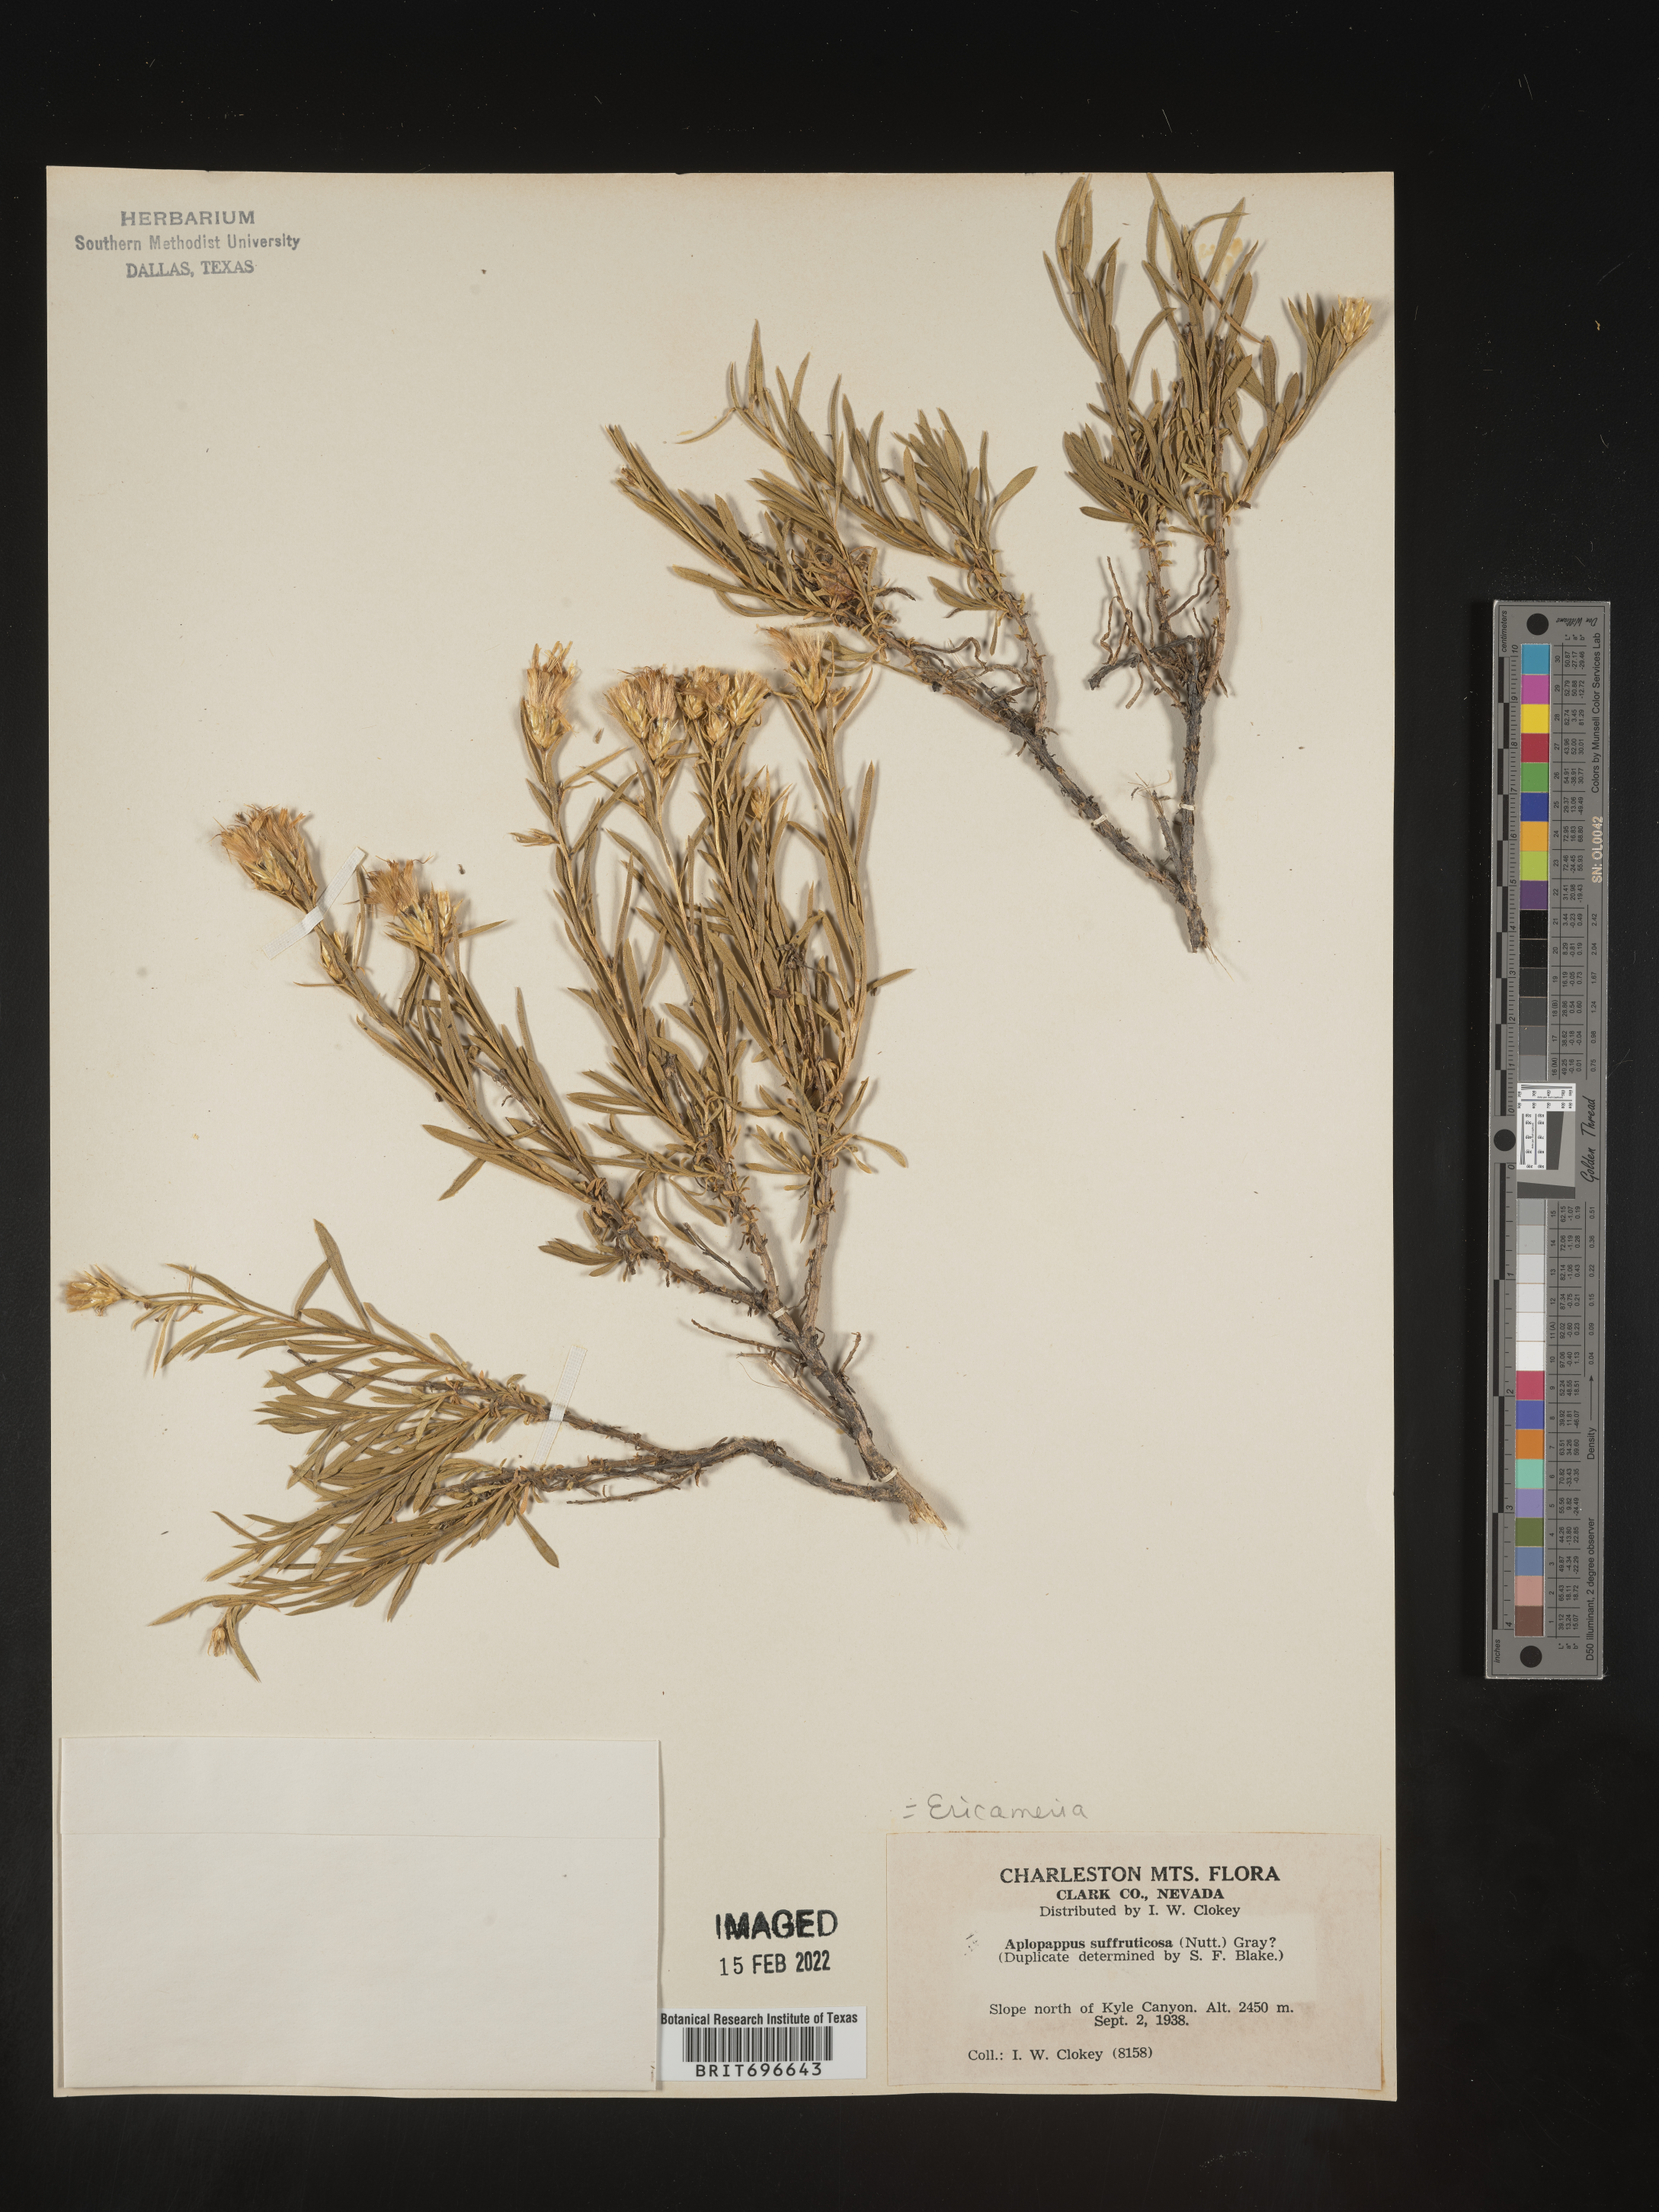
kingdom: Plantae
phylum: Tracheophyta
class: Magnoliopsida
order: Asterales
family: Asteraceae
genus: Ericameria
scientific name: Ericameria suffruticosa
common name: Goldenweed
